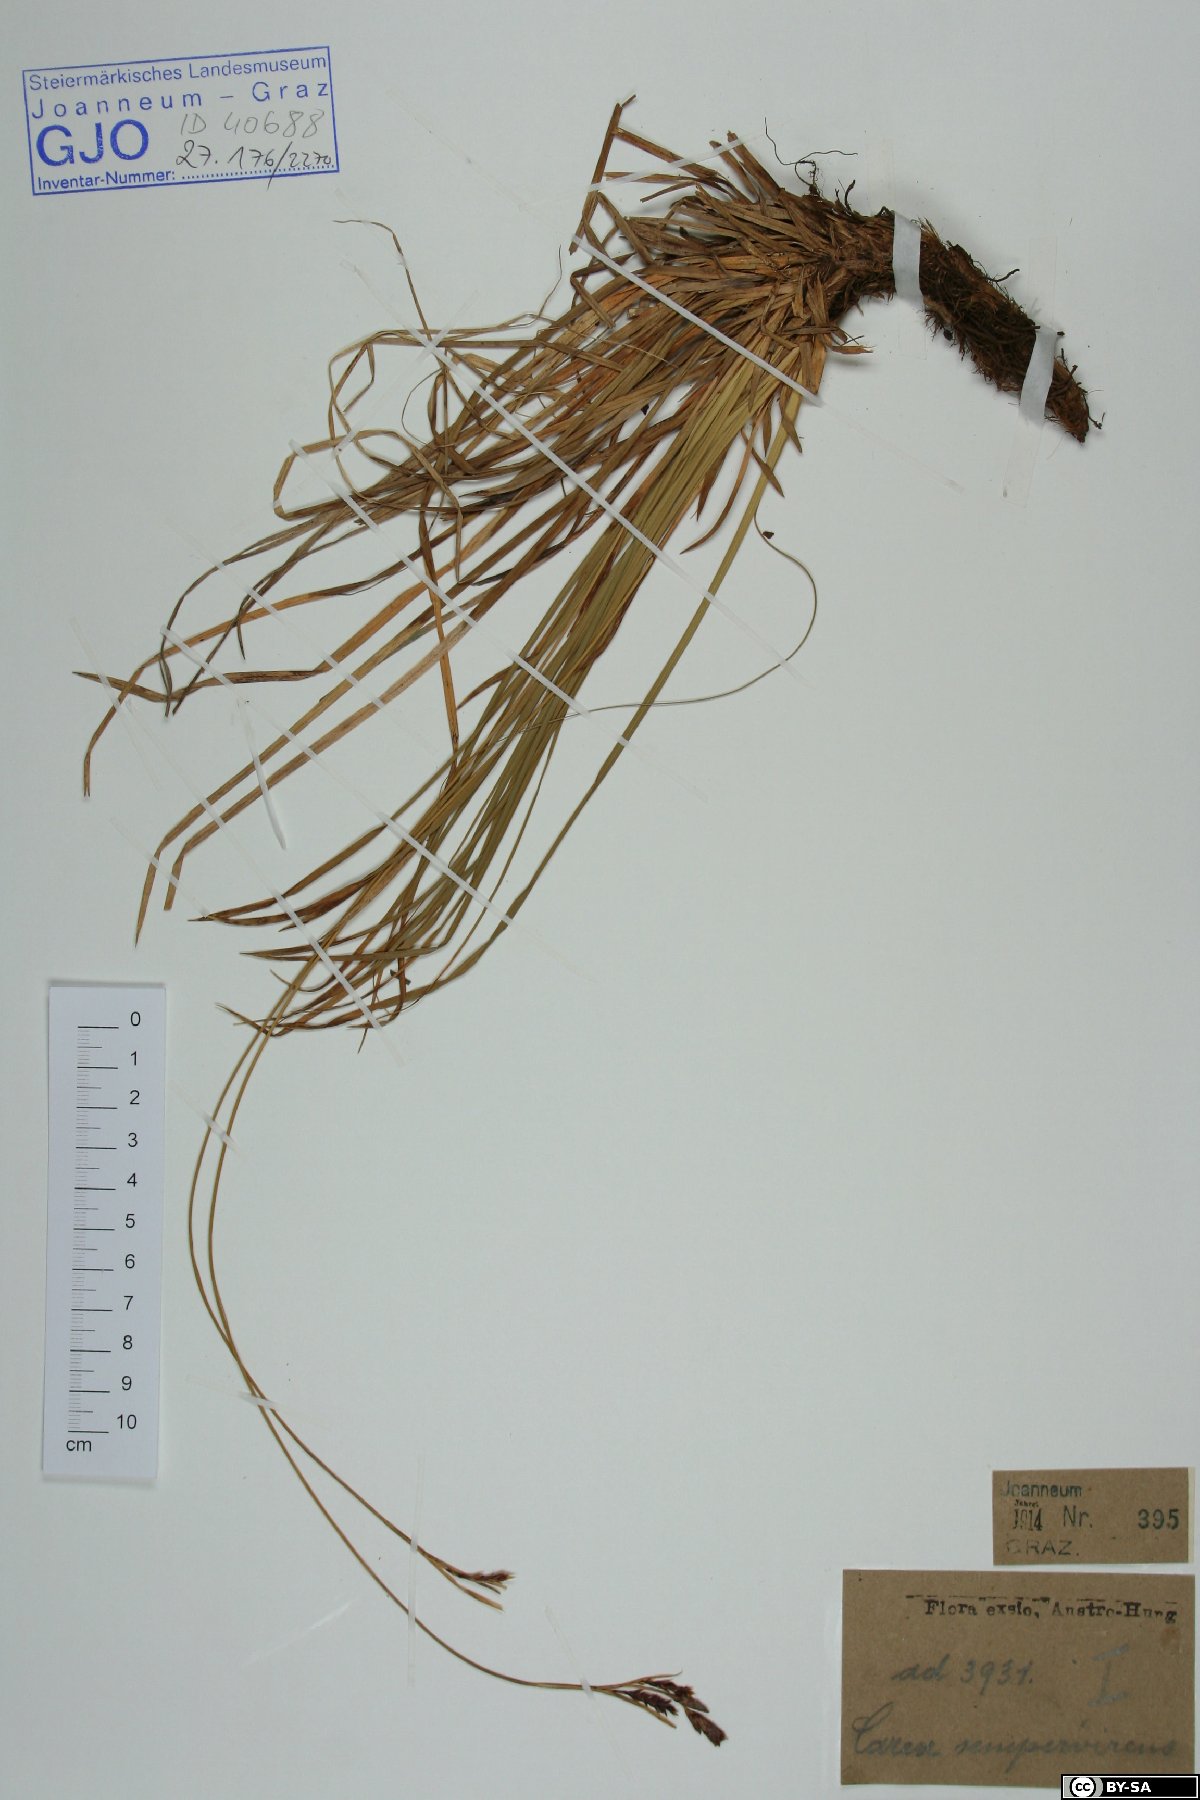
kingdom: Plantae
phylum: Tracheophyta
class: Liliopsida
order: Poales
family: Cyperaceae
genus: Carex
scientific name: Carex sempervirens
